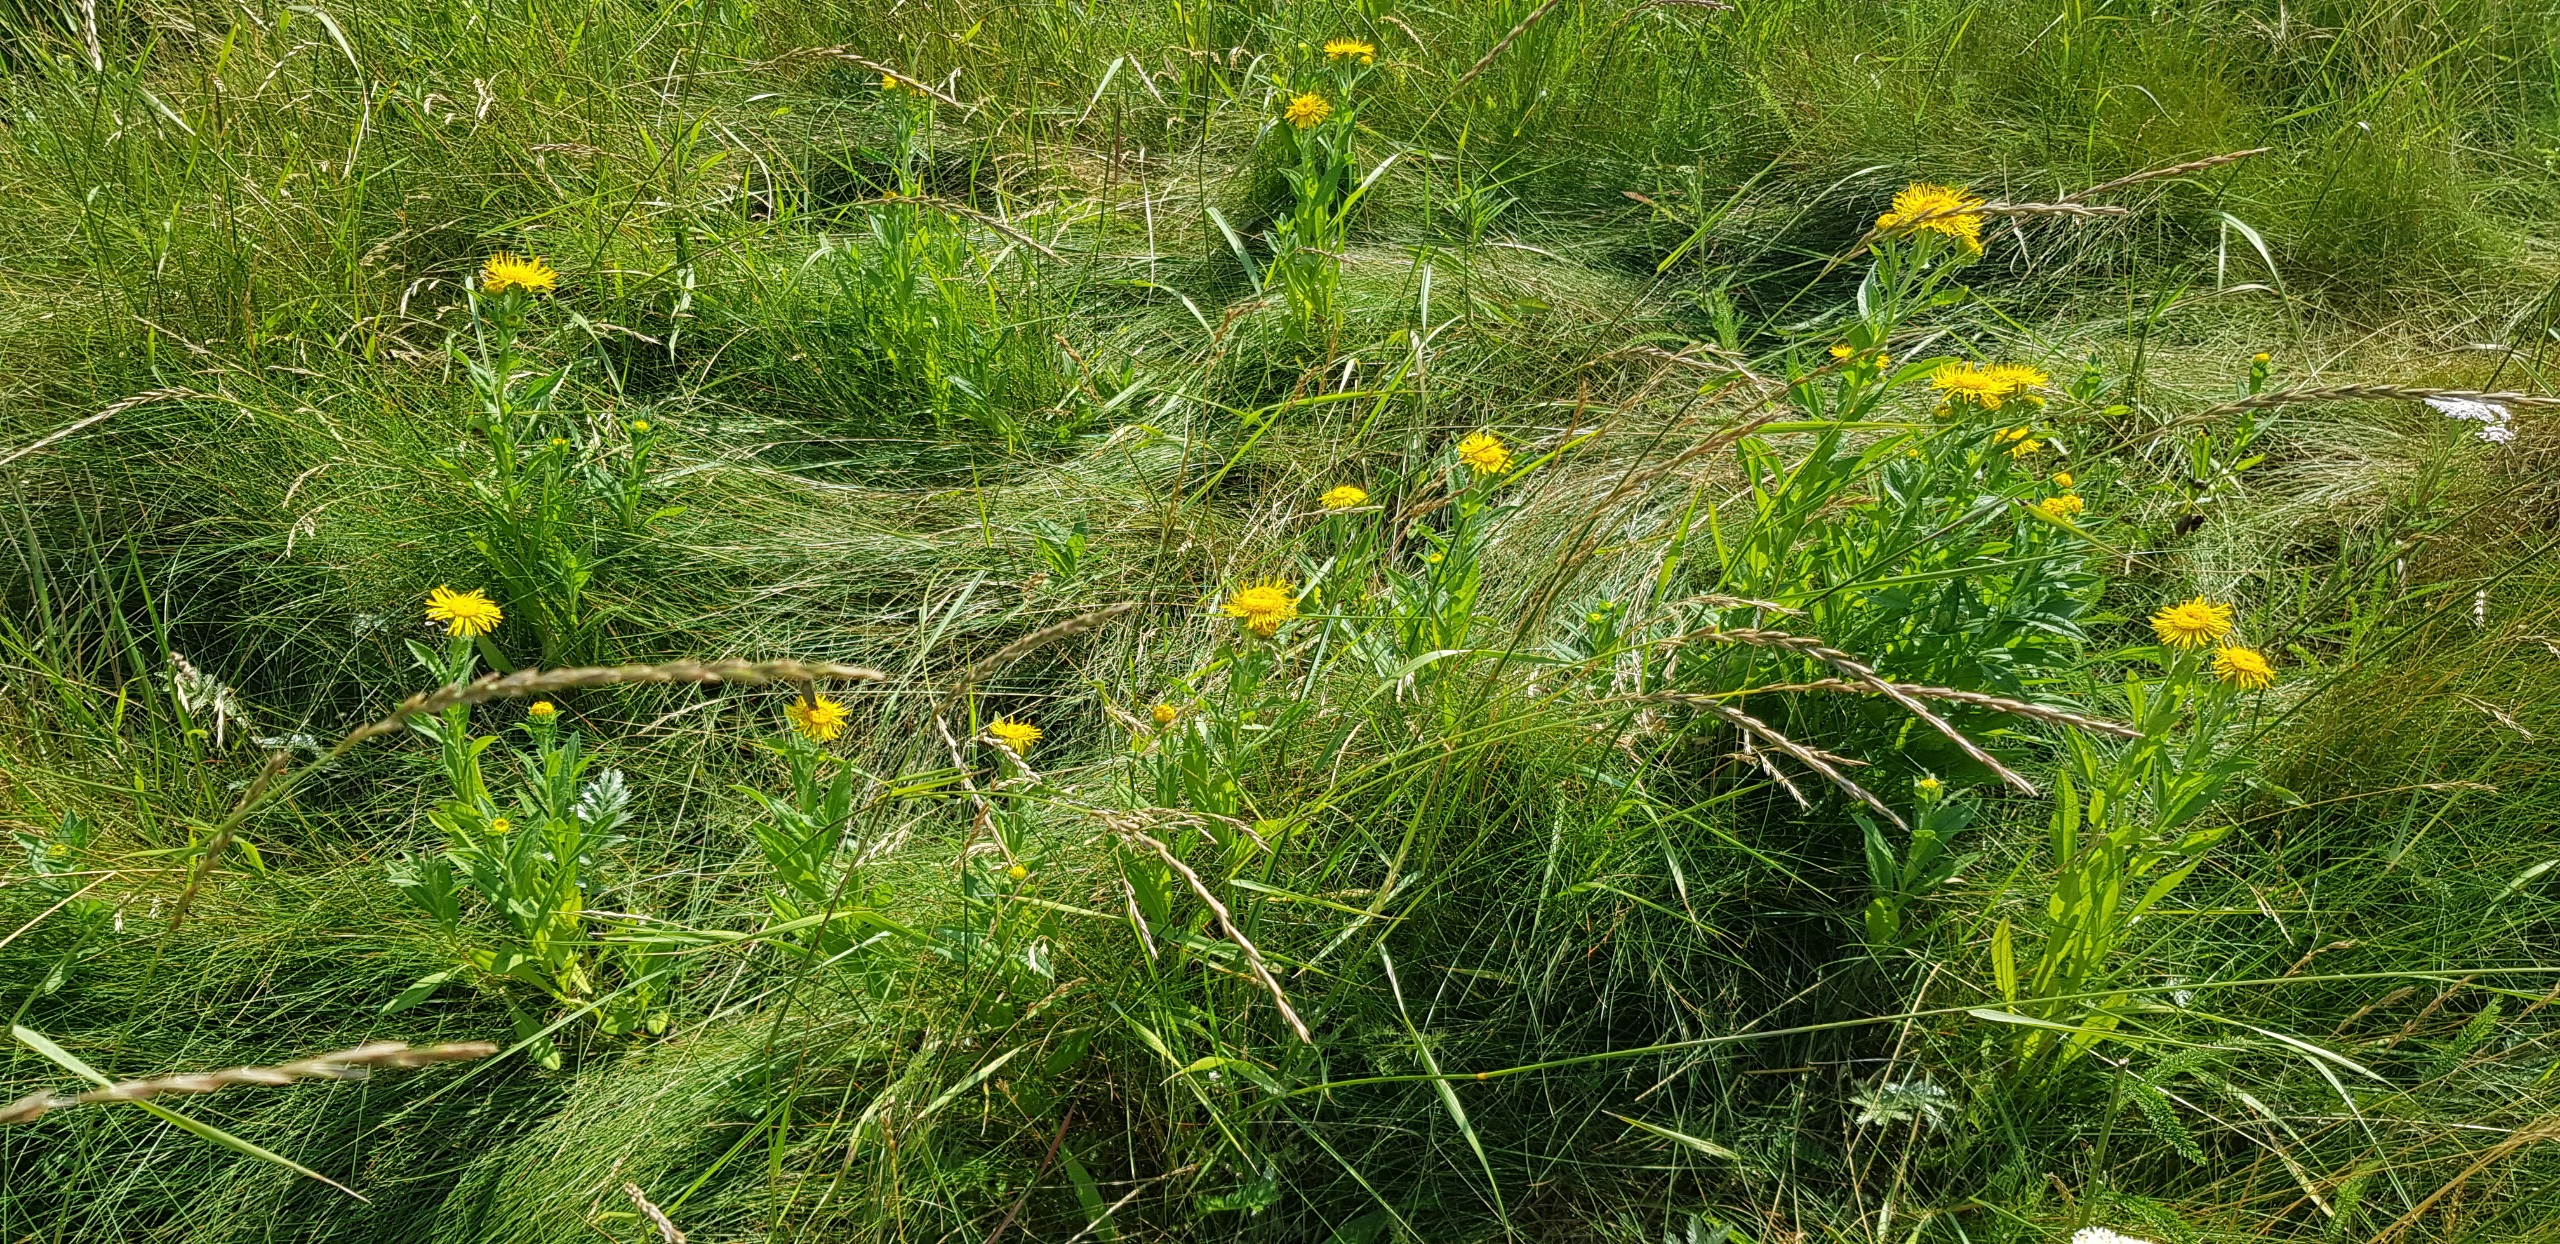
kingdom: Plantae
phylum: Tracheophyta
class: Magnoliopsida
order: Asterales
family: Asteraceae
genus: Pentanema
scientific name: Pentanema britannicum
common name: Soløje-alant
